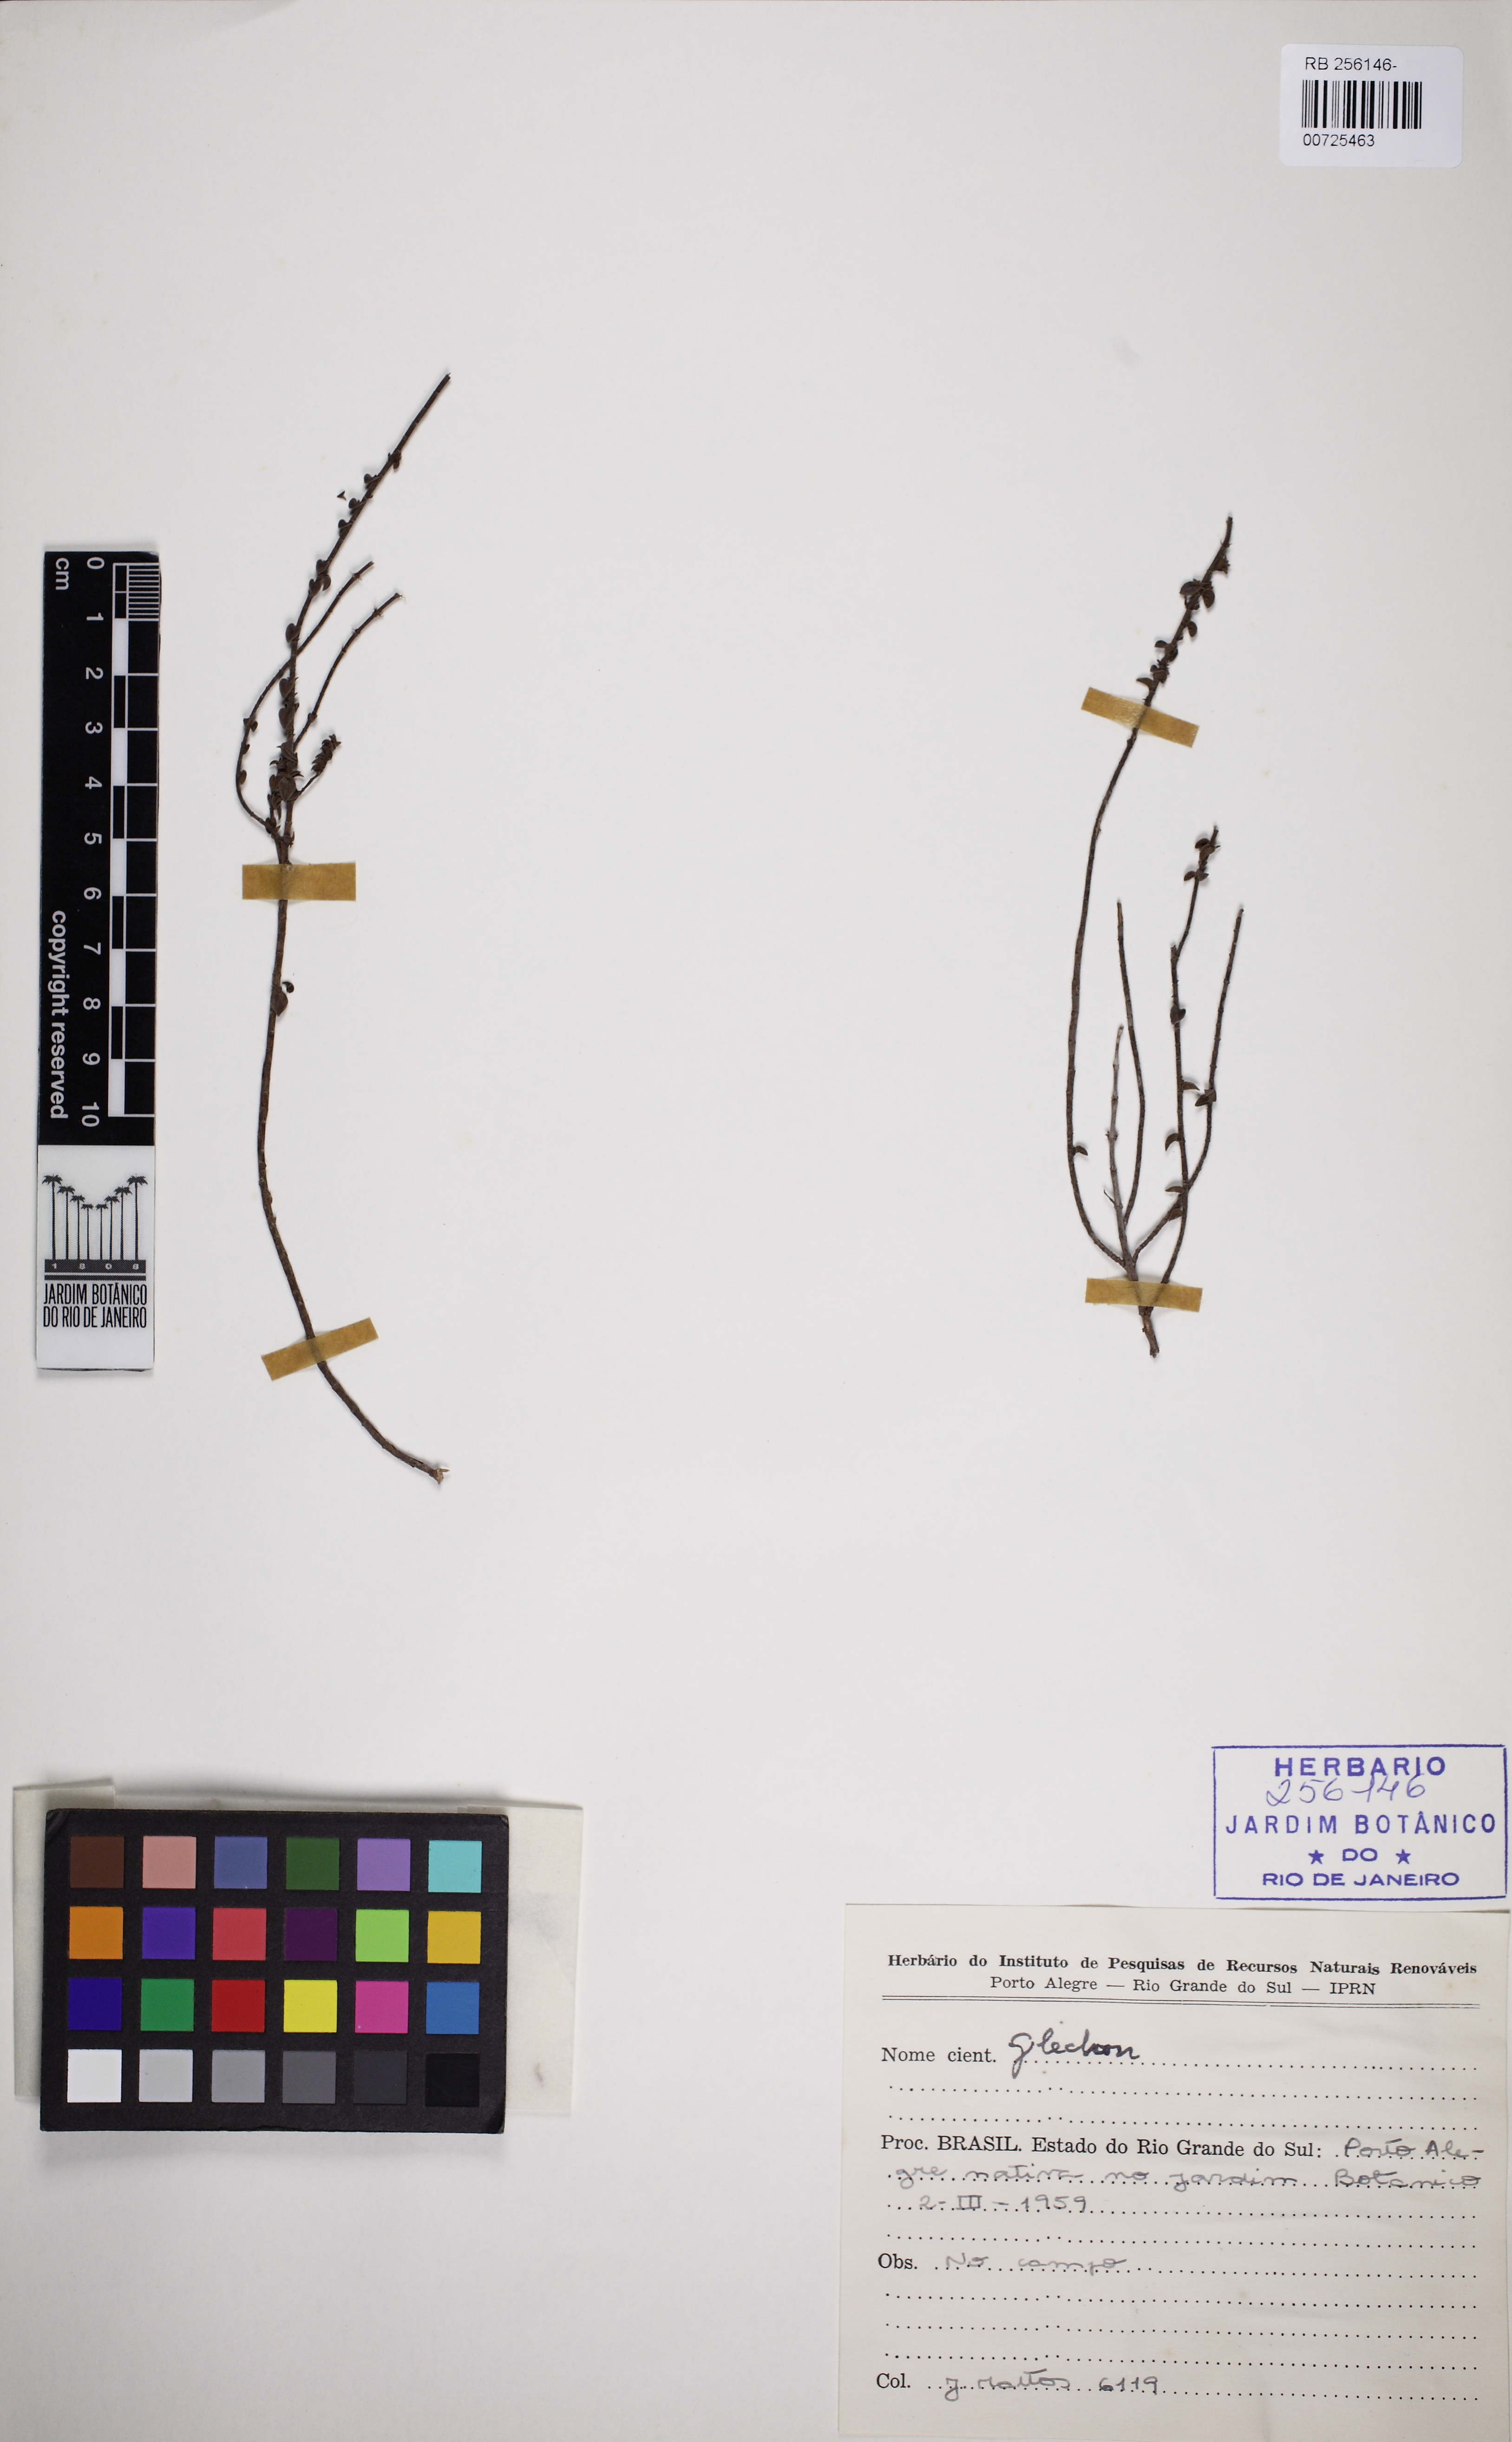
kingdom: Plantae
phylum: Tracheophyta
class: Magnoliopsida
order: Lamiales
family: Lamiaceae
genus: Glechon
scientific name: Glechon ciliata
